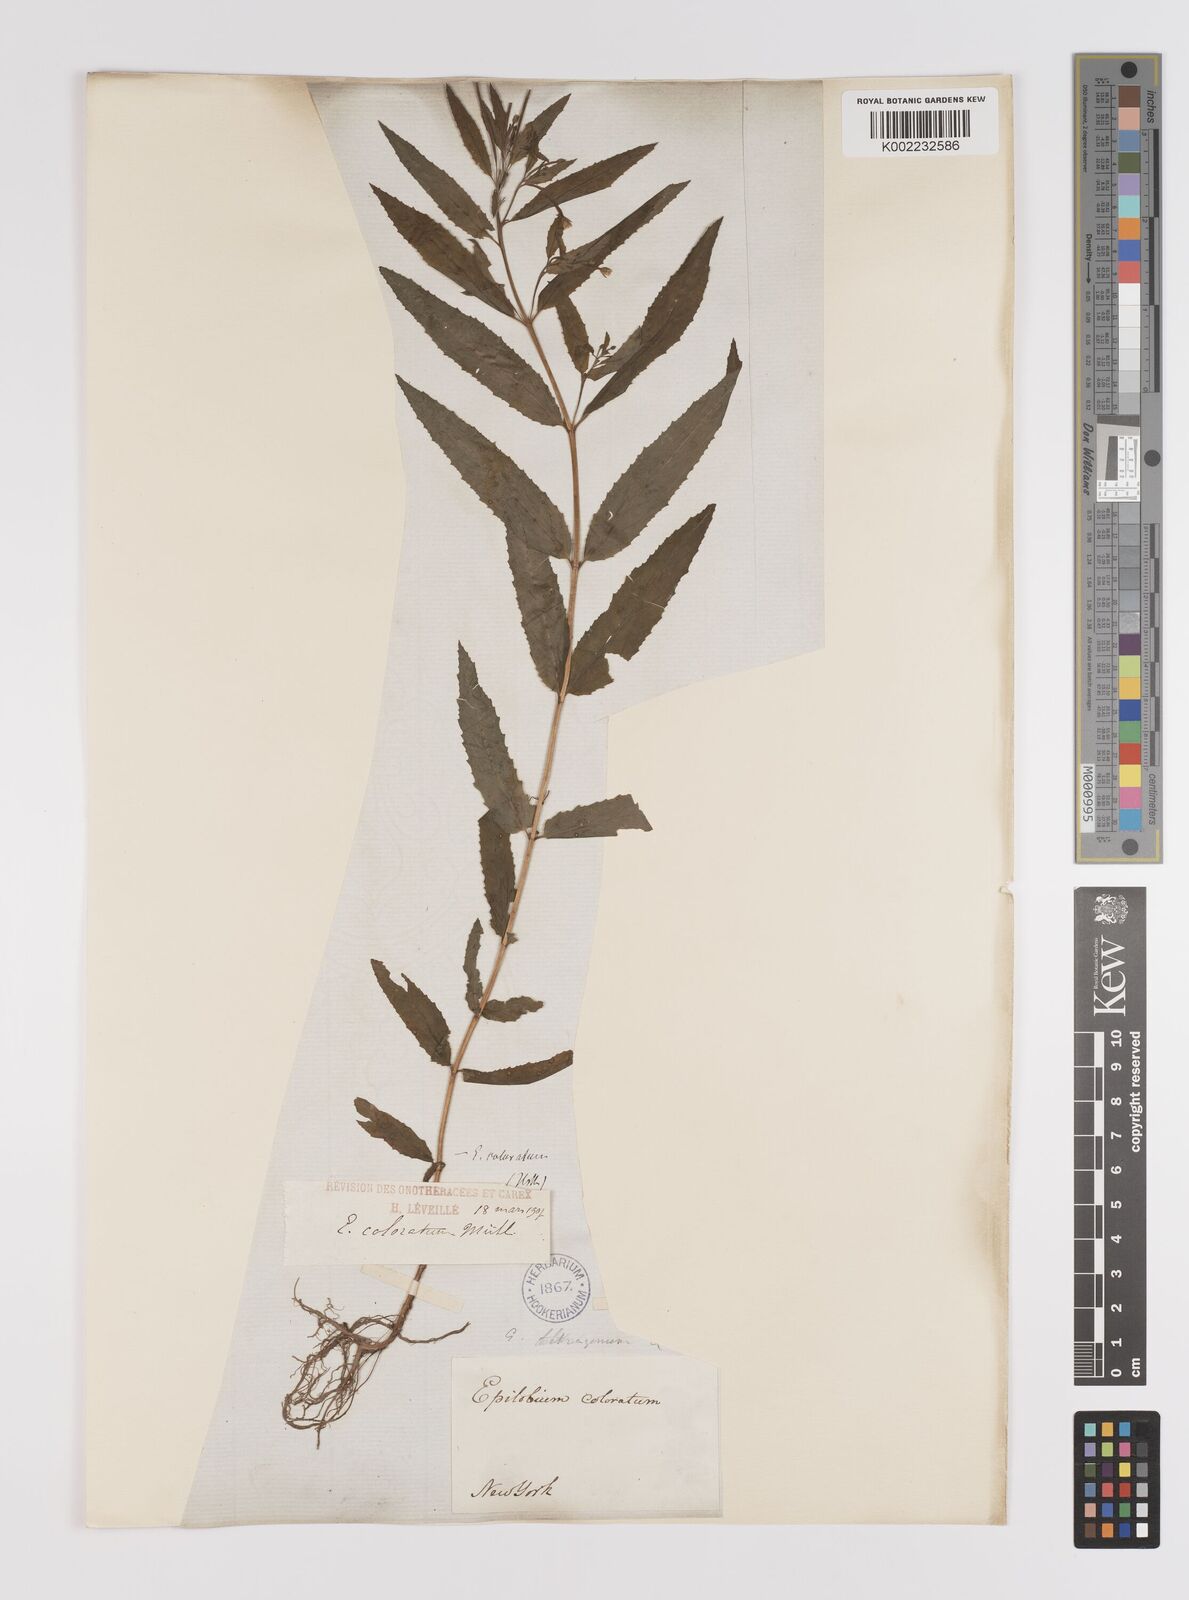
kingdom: Plantae
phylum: Tracheophyta
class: Magnoliopsida
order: Myrtales
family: Onagraceae
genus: Epilobium
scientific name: Epilobium coloratum
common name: Bronze willowherb
